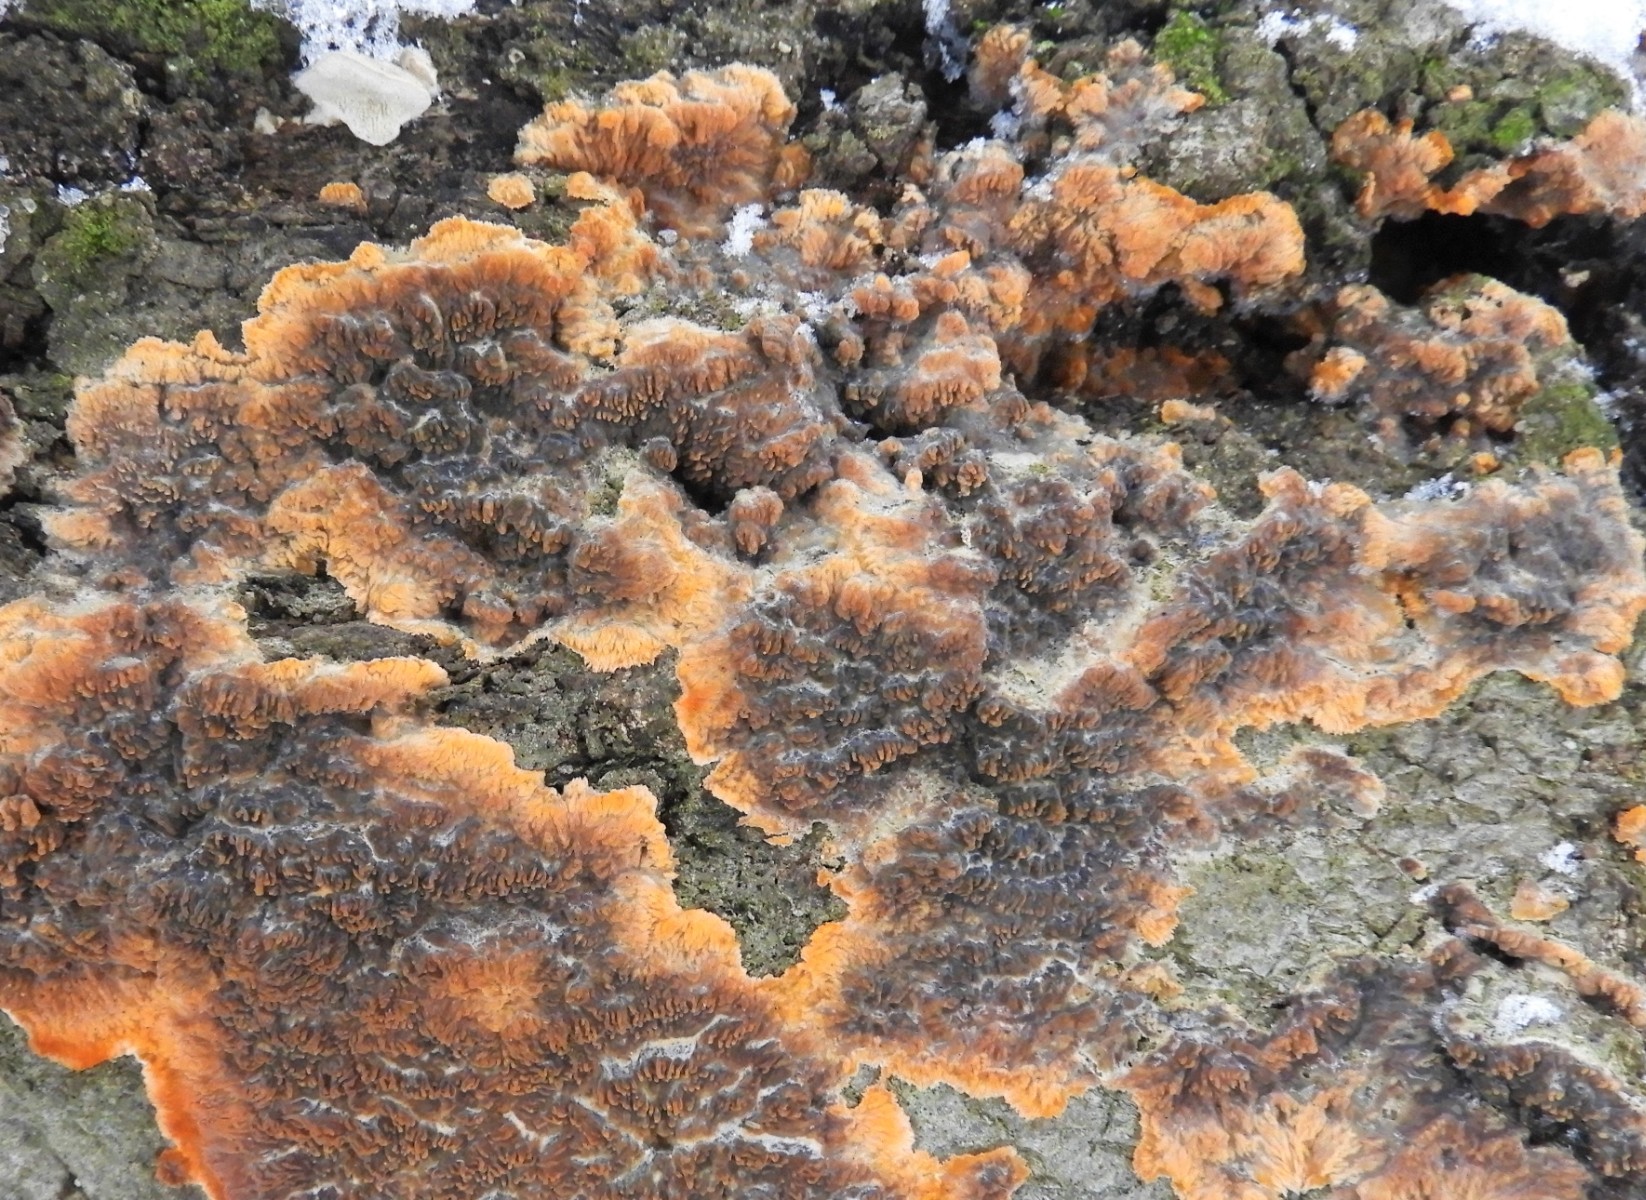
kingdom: Fungi
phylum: Basidiomycota
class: Agaricomycetes
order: Polyporales
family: Meruliaceae
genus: Phlebia
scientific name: Phlebia radiata
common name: stråle-åresvamp
